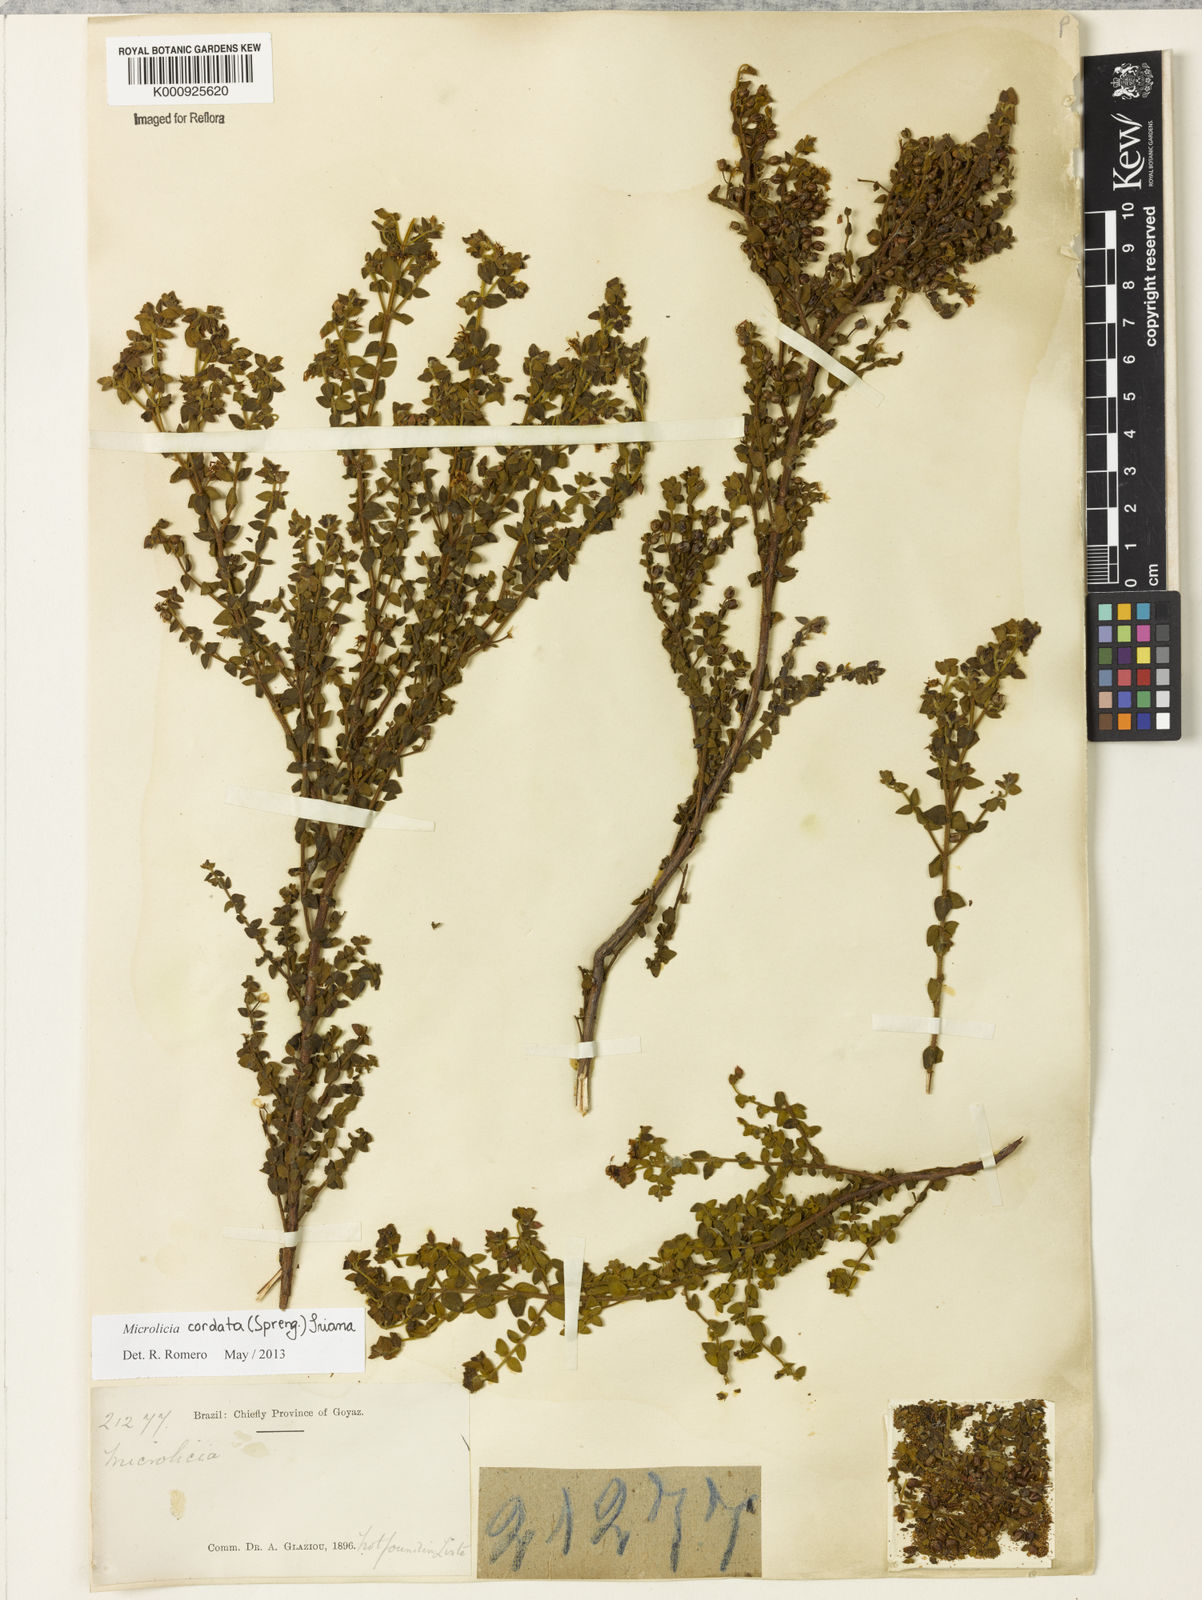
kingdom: Plantae
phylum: Tracheophyta
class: Magnoliopsida
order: Myrtales
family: Melastomataceae
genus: Microlicia
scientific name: Microlicia cordata
